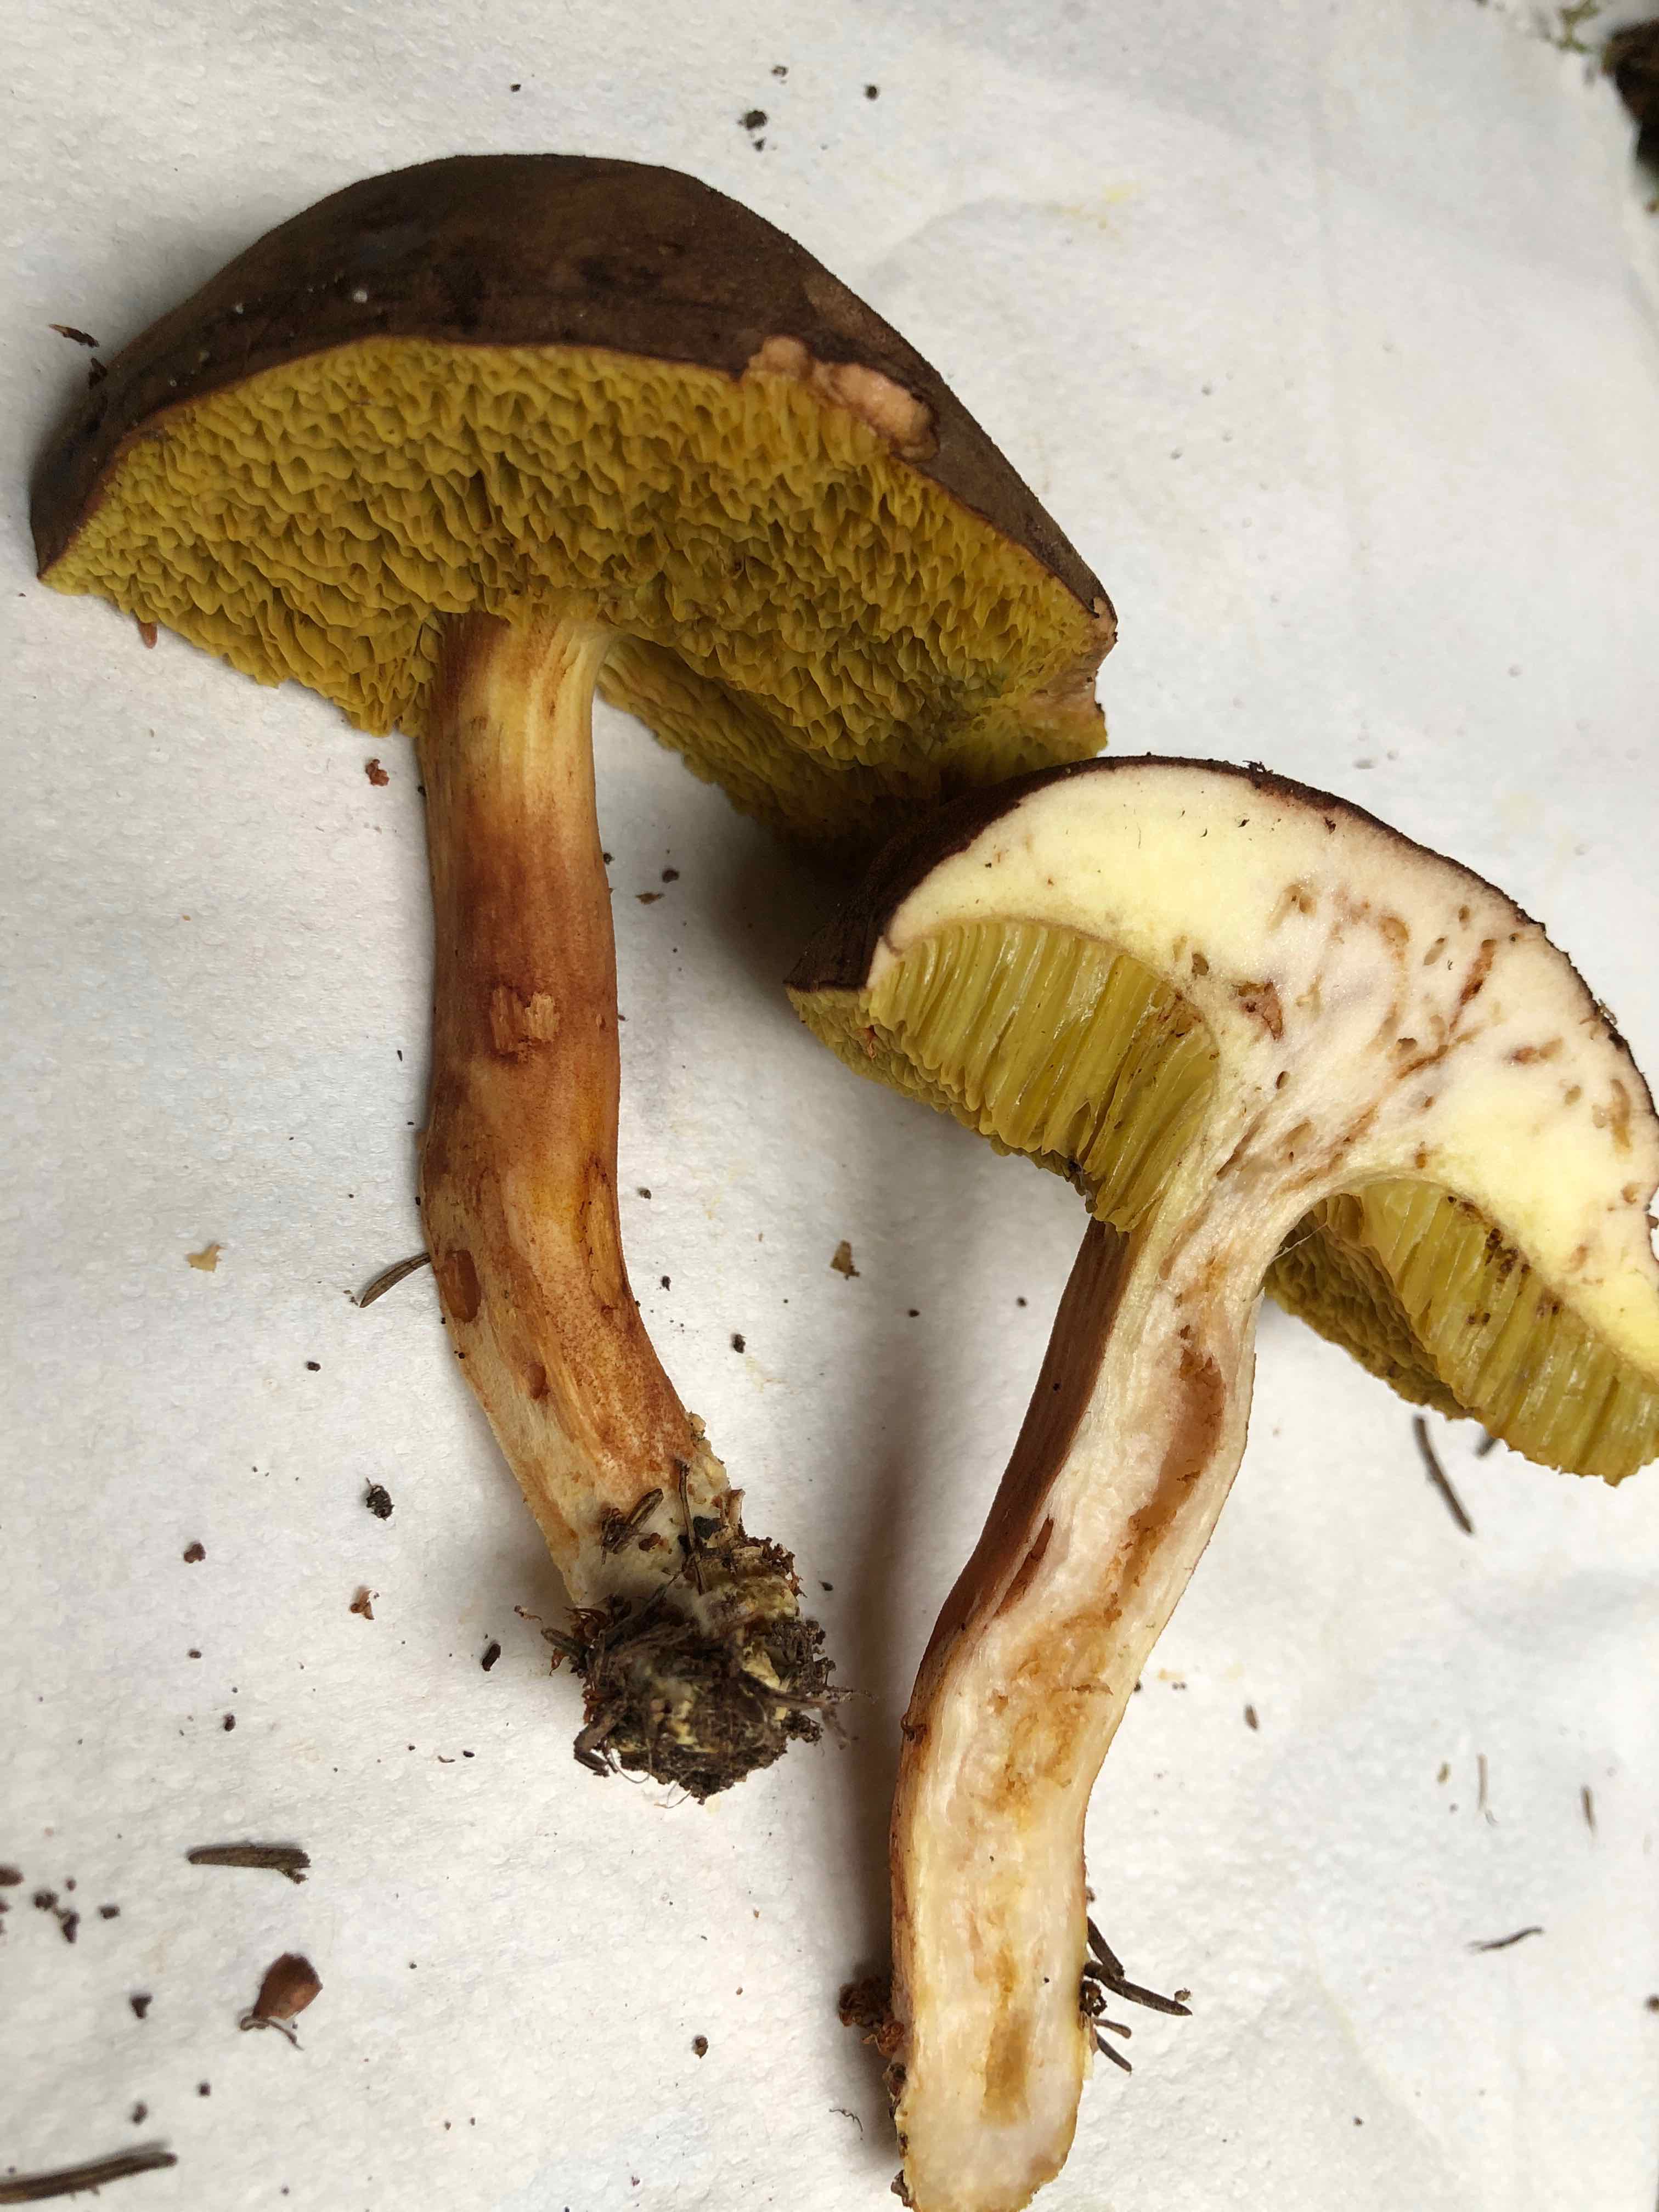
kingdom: Fungi
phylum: Basidiomycota
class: Agaricomycetes
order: Boletales
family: Boletaceae
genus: Xerocomus
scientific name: Xerocomus ferrugineus
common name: vaskeskinds-rørhat
